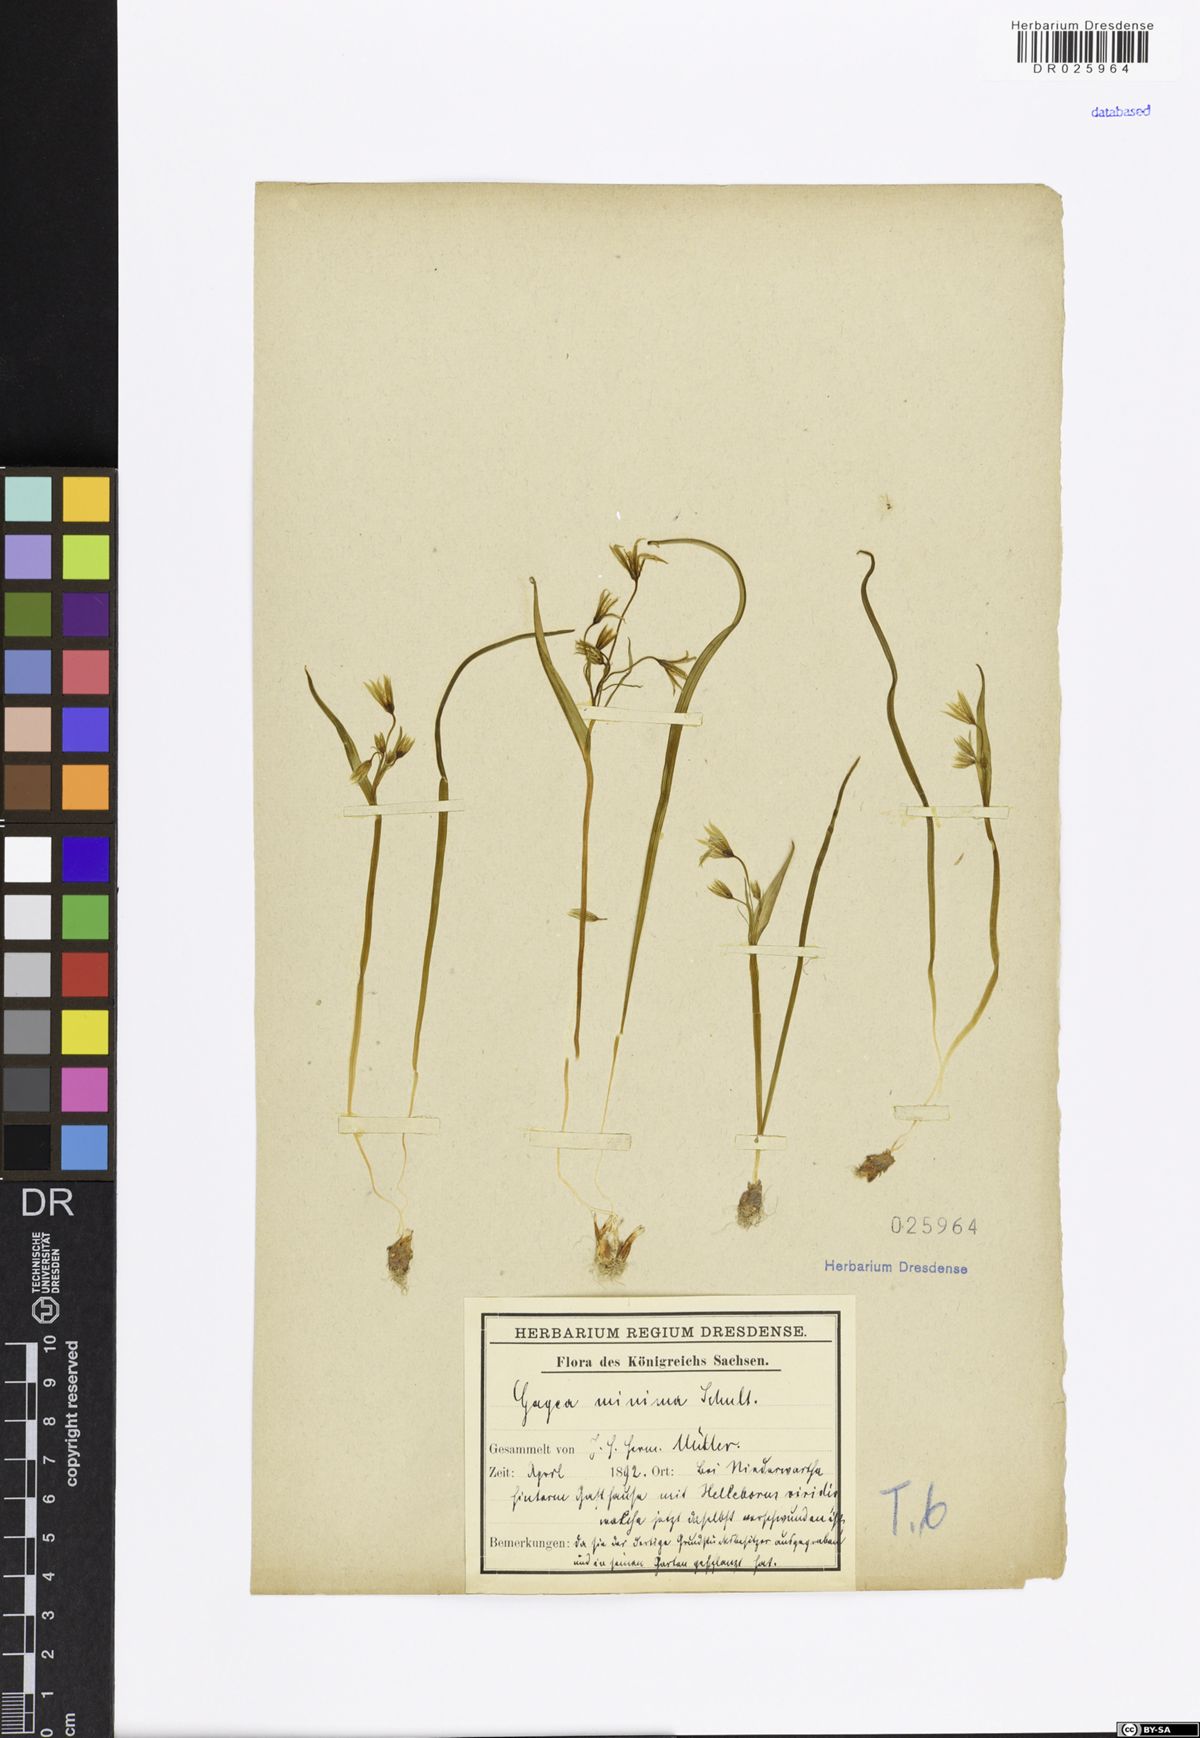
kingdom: Plantae
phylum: Tracheophyta
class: Liliopsida
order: Liliales
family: Liliaceae
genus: Gagea
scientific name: Gagea minima
